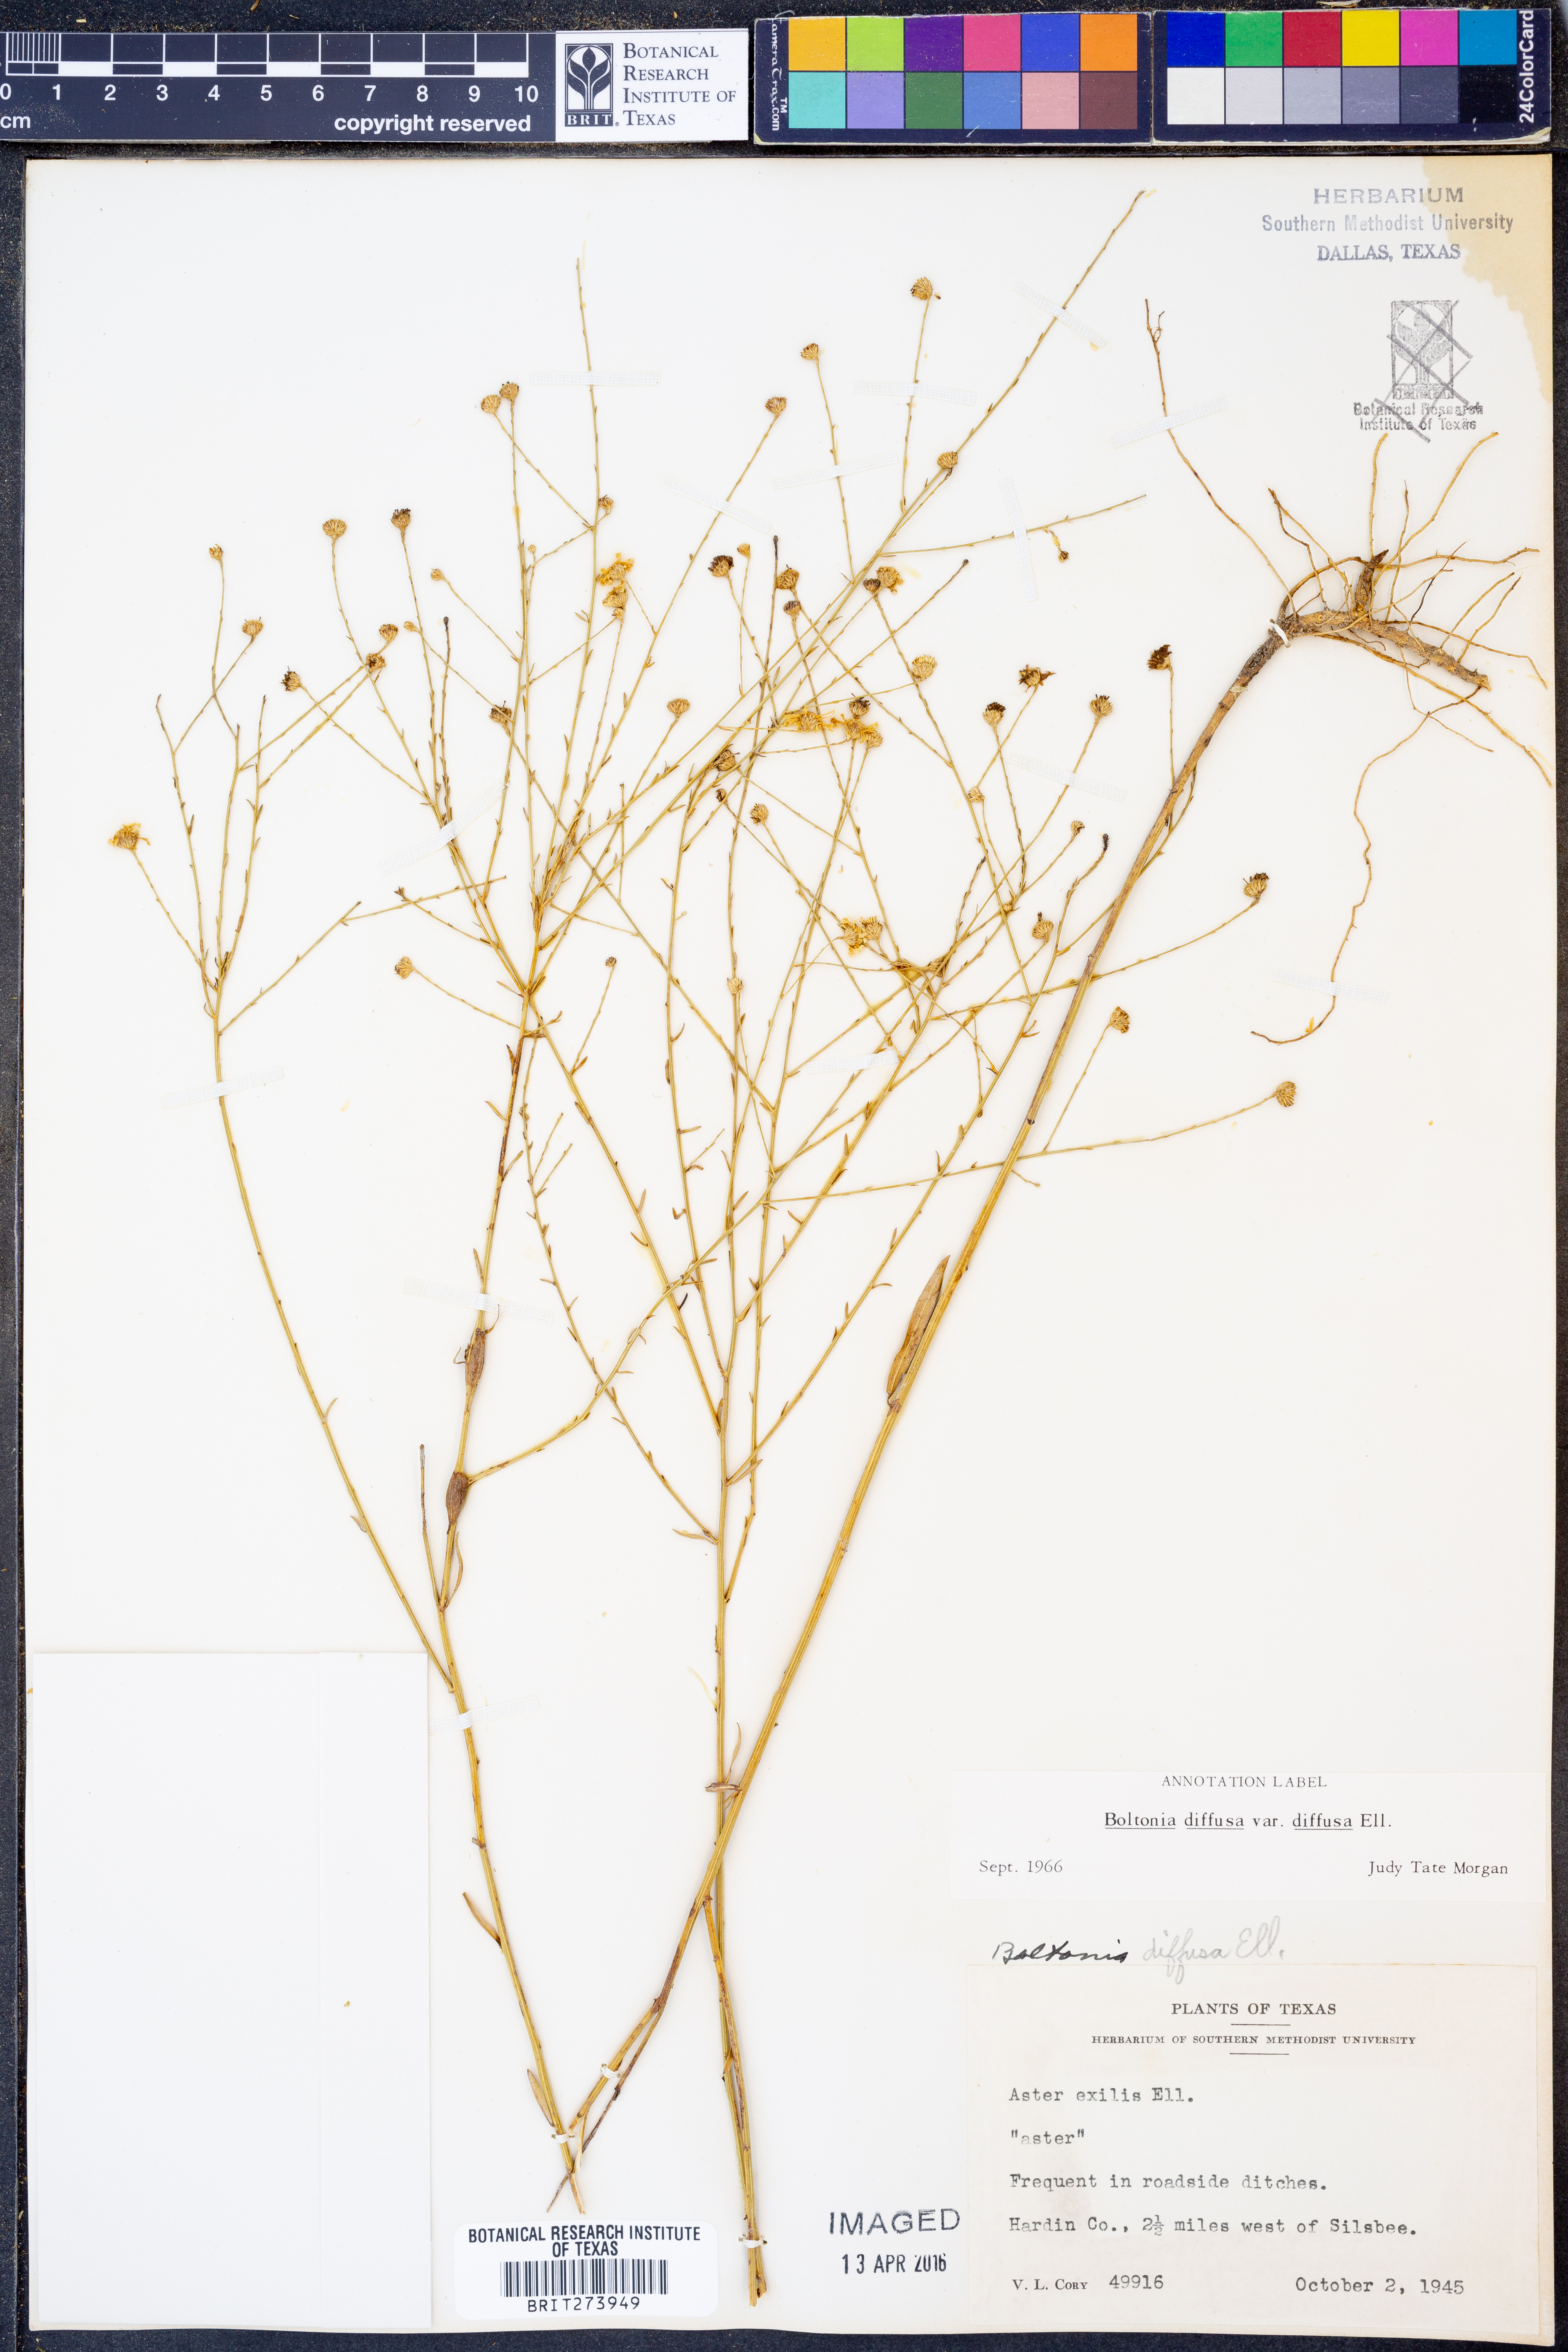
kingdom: Plantae
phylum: Tracheophyta
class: Magnoliopsida
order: Asterales
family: Asteraceae
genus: Boltonia
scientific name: Boltonia diffusa
